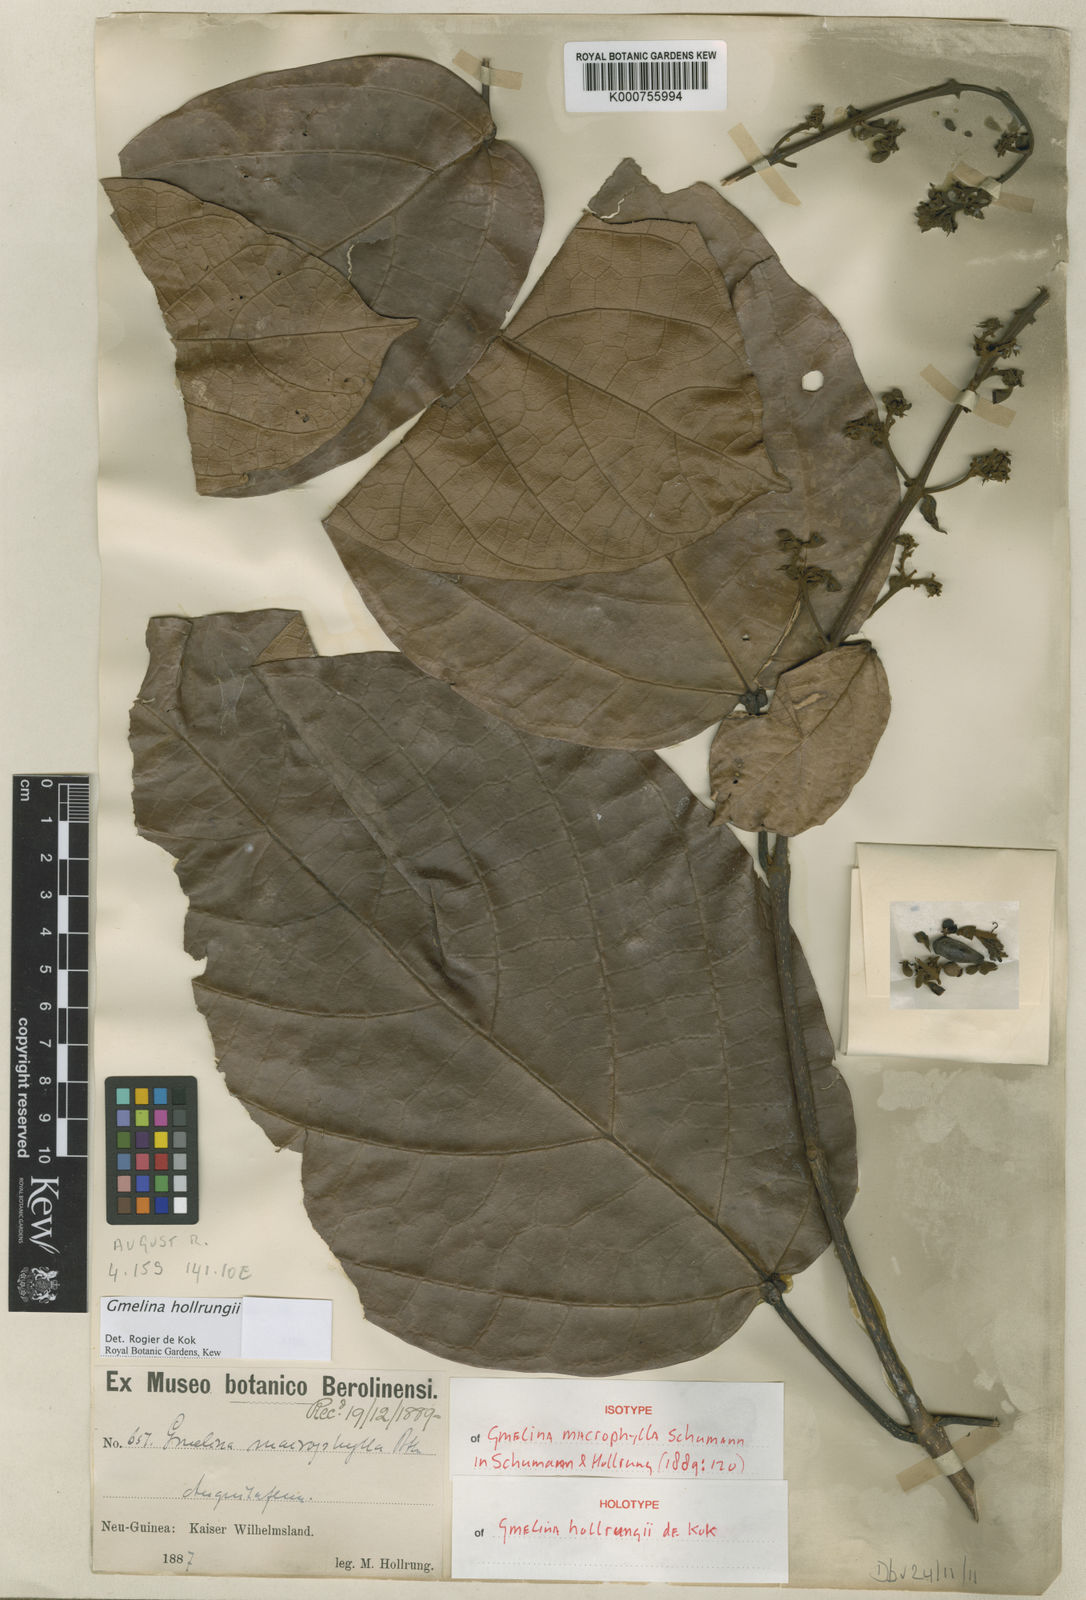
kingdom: Plantae
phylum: Tracheophyta
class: Magnoliopsida
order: Lamiales
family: Lamiaceae
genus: Gmelina
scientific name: Gmelina hollrungii
